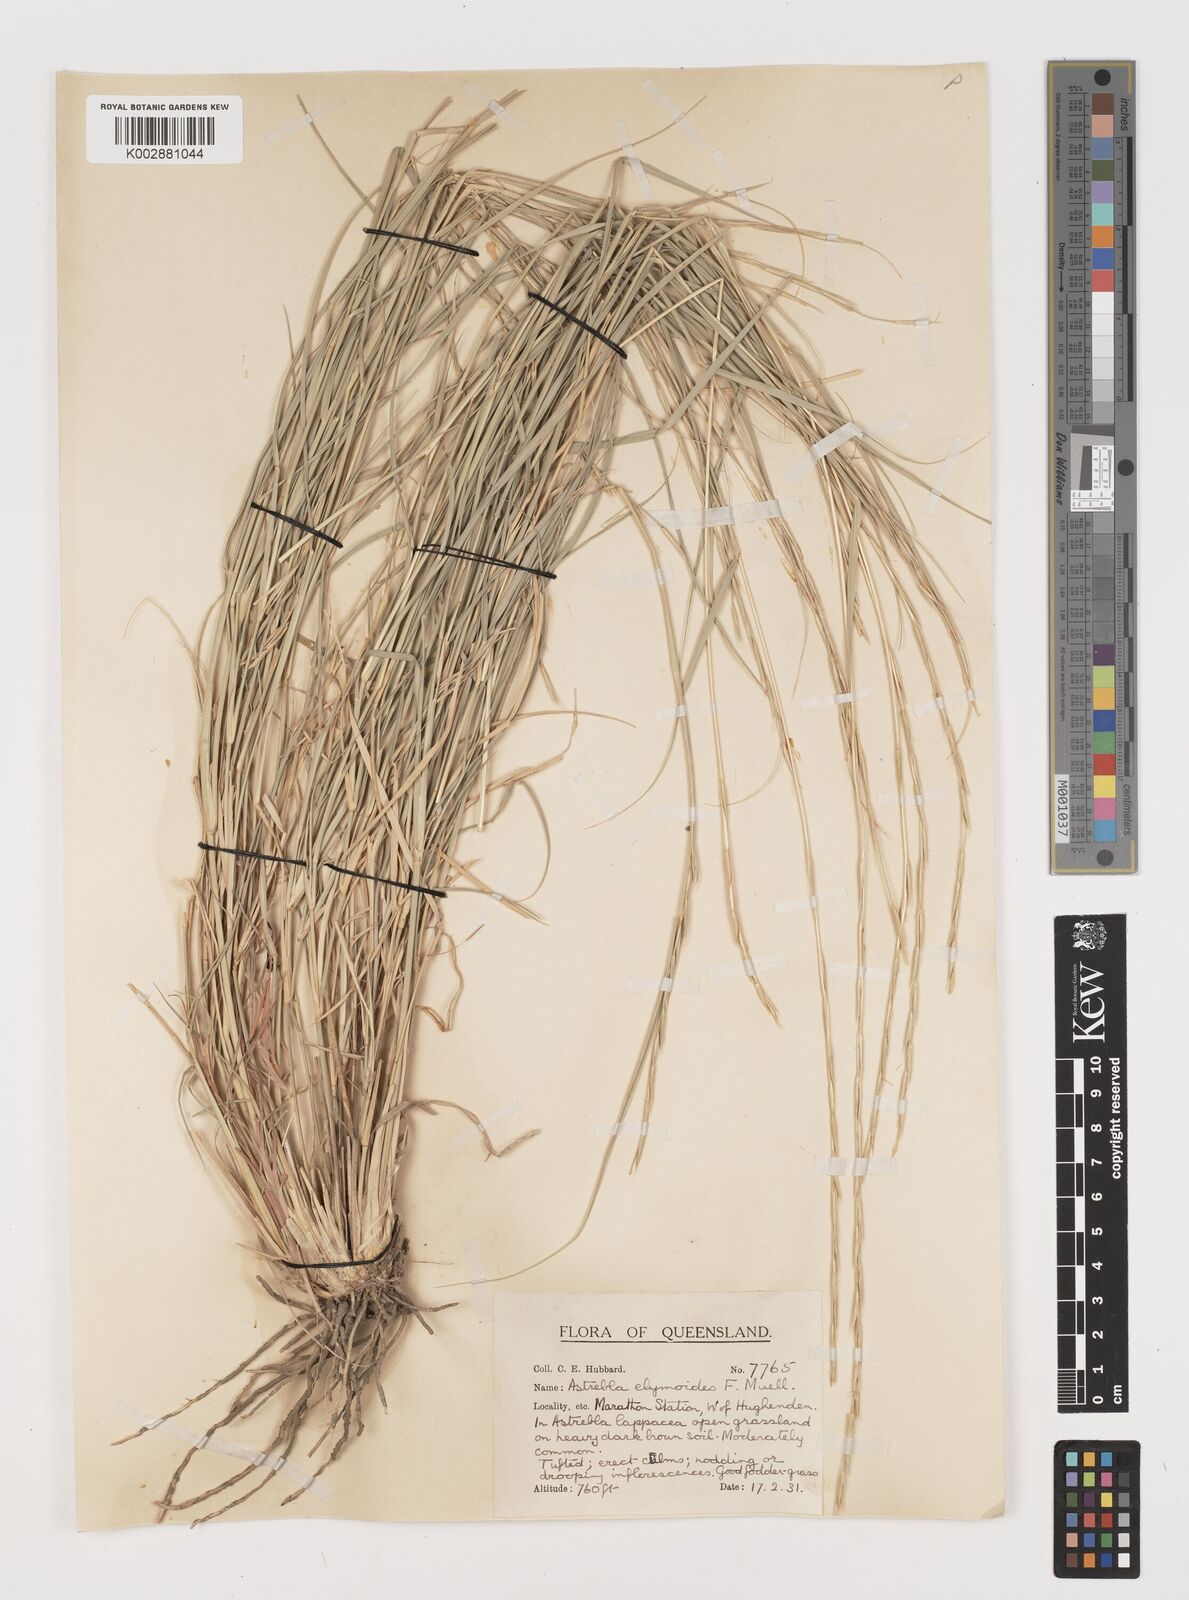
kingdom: Plantae
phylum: Tracheophyta
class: Liliopsida
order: Poales
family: Poaceae
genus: Astrebla
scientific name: Astrebla elymoides
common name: Hoop mitchell grass
